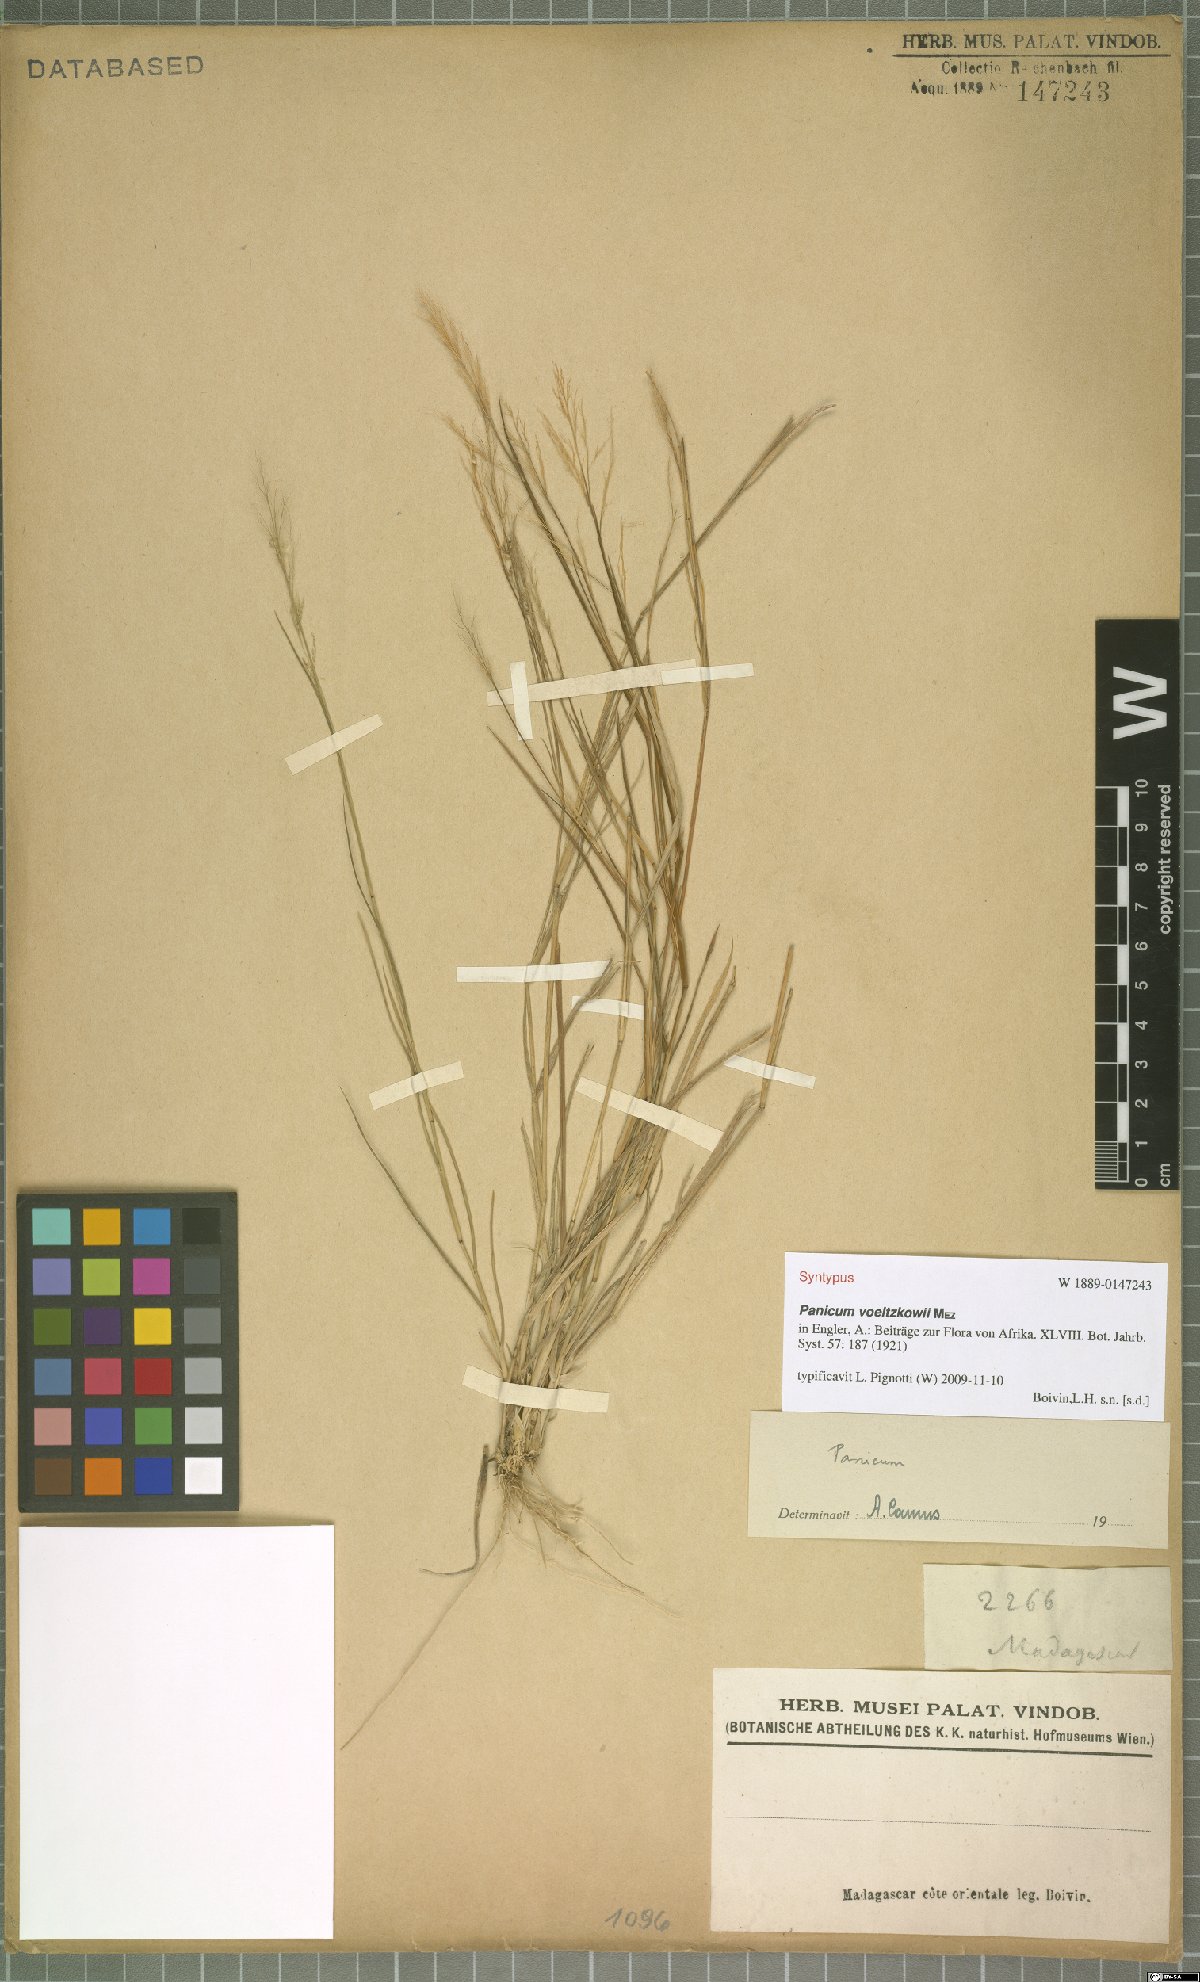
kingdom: Plantae
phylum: Tracheophyta
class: Liliopsida
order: Poales
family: Poaceae
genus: Panicum
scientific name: Panicum voeltzkowii
